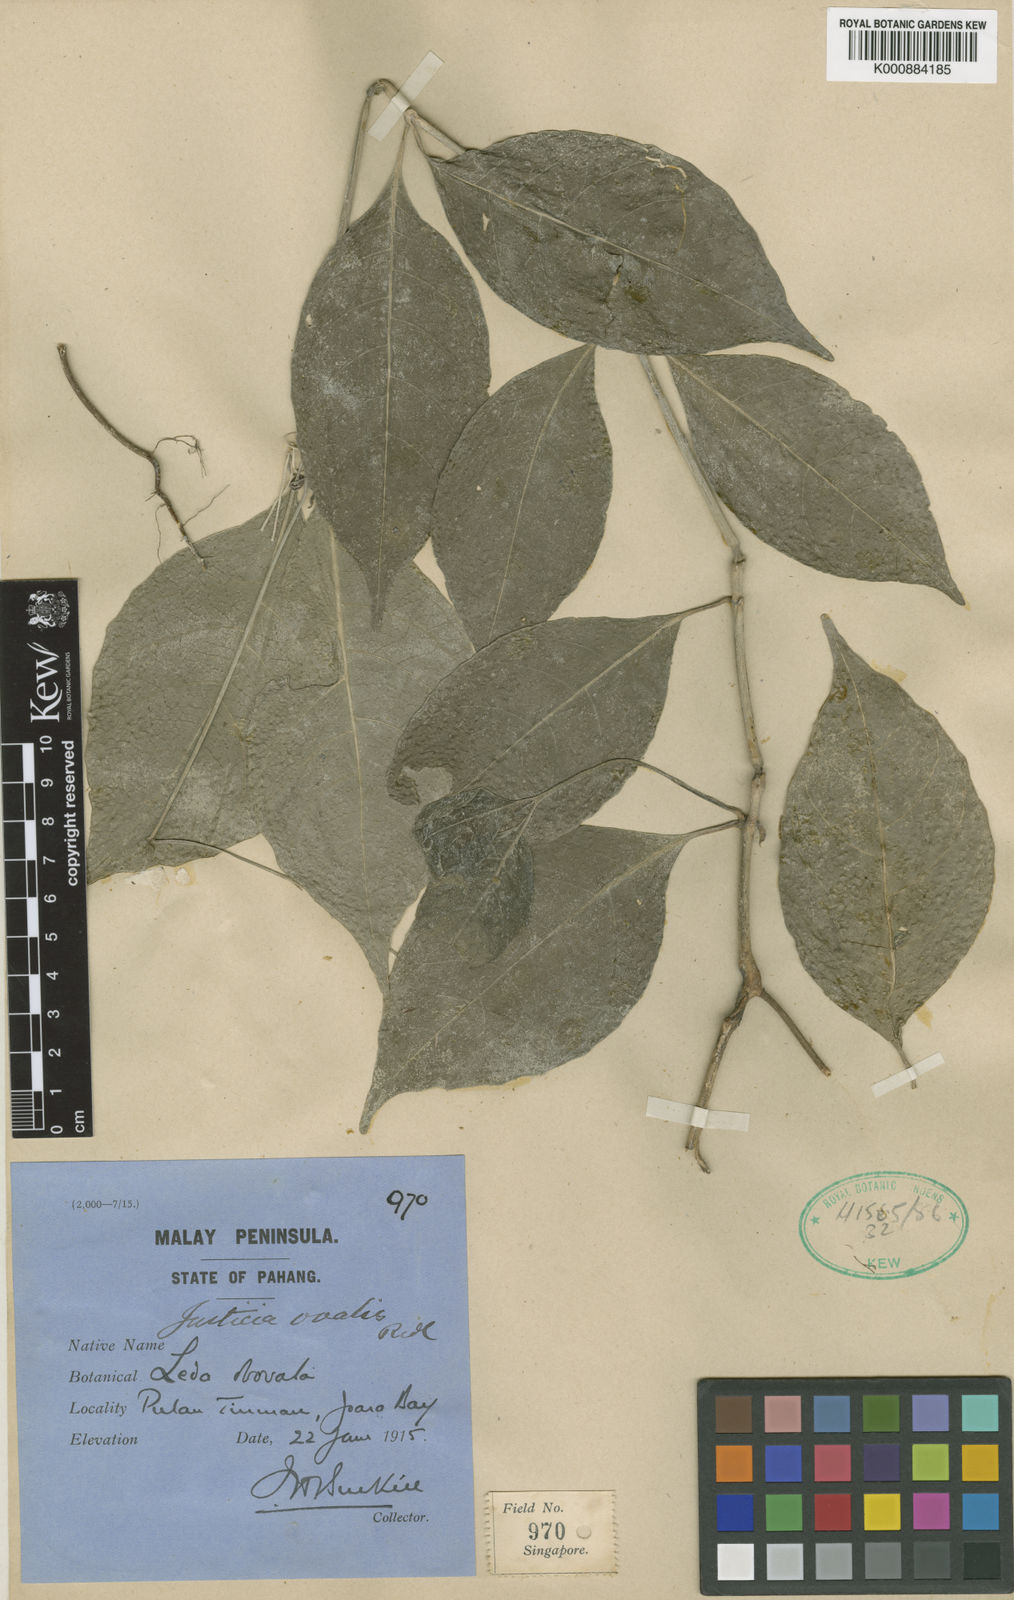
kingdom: Plantae
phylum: Tracheophyta
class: Magnoliopsida
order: Lamiales
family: Acanthaceae
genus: Justicia
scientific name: Justicia ovalis
